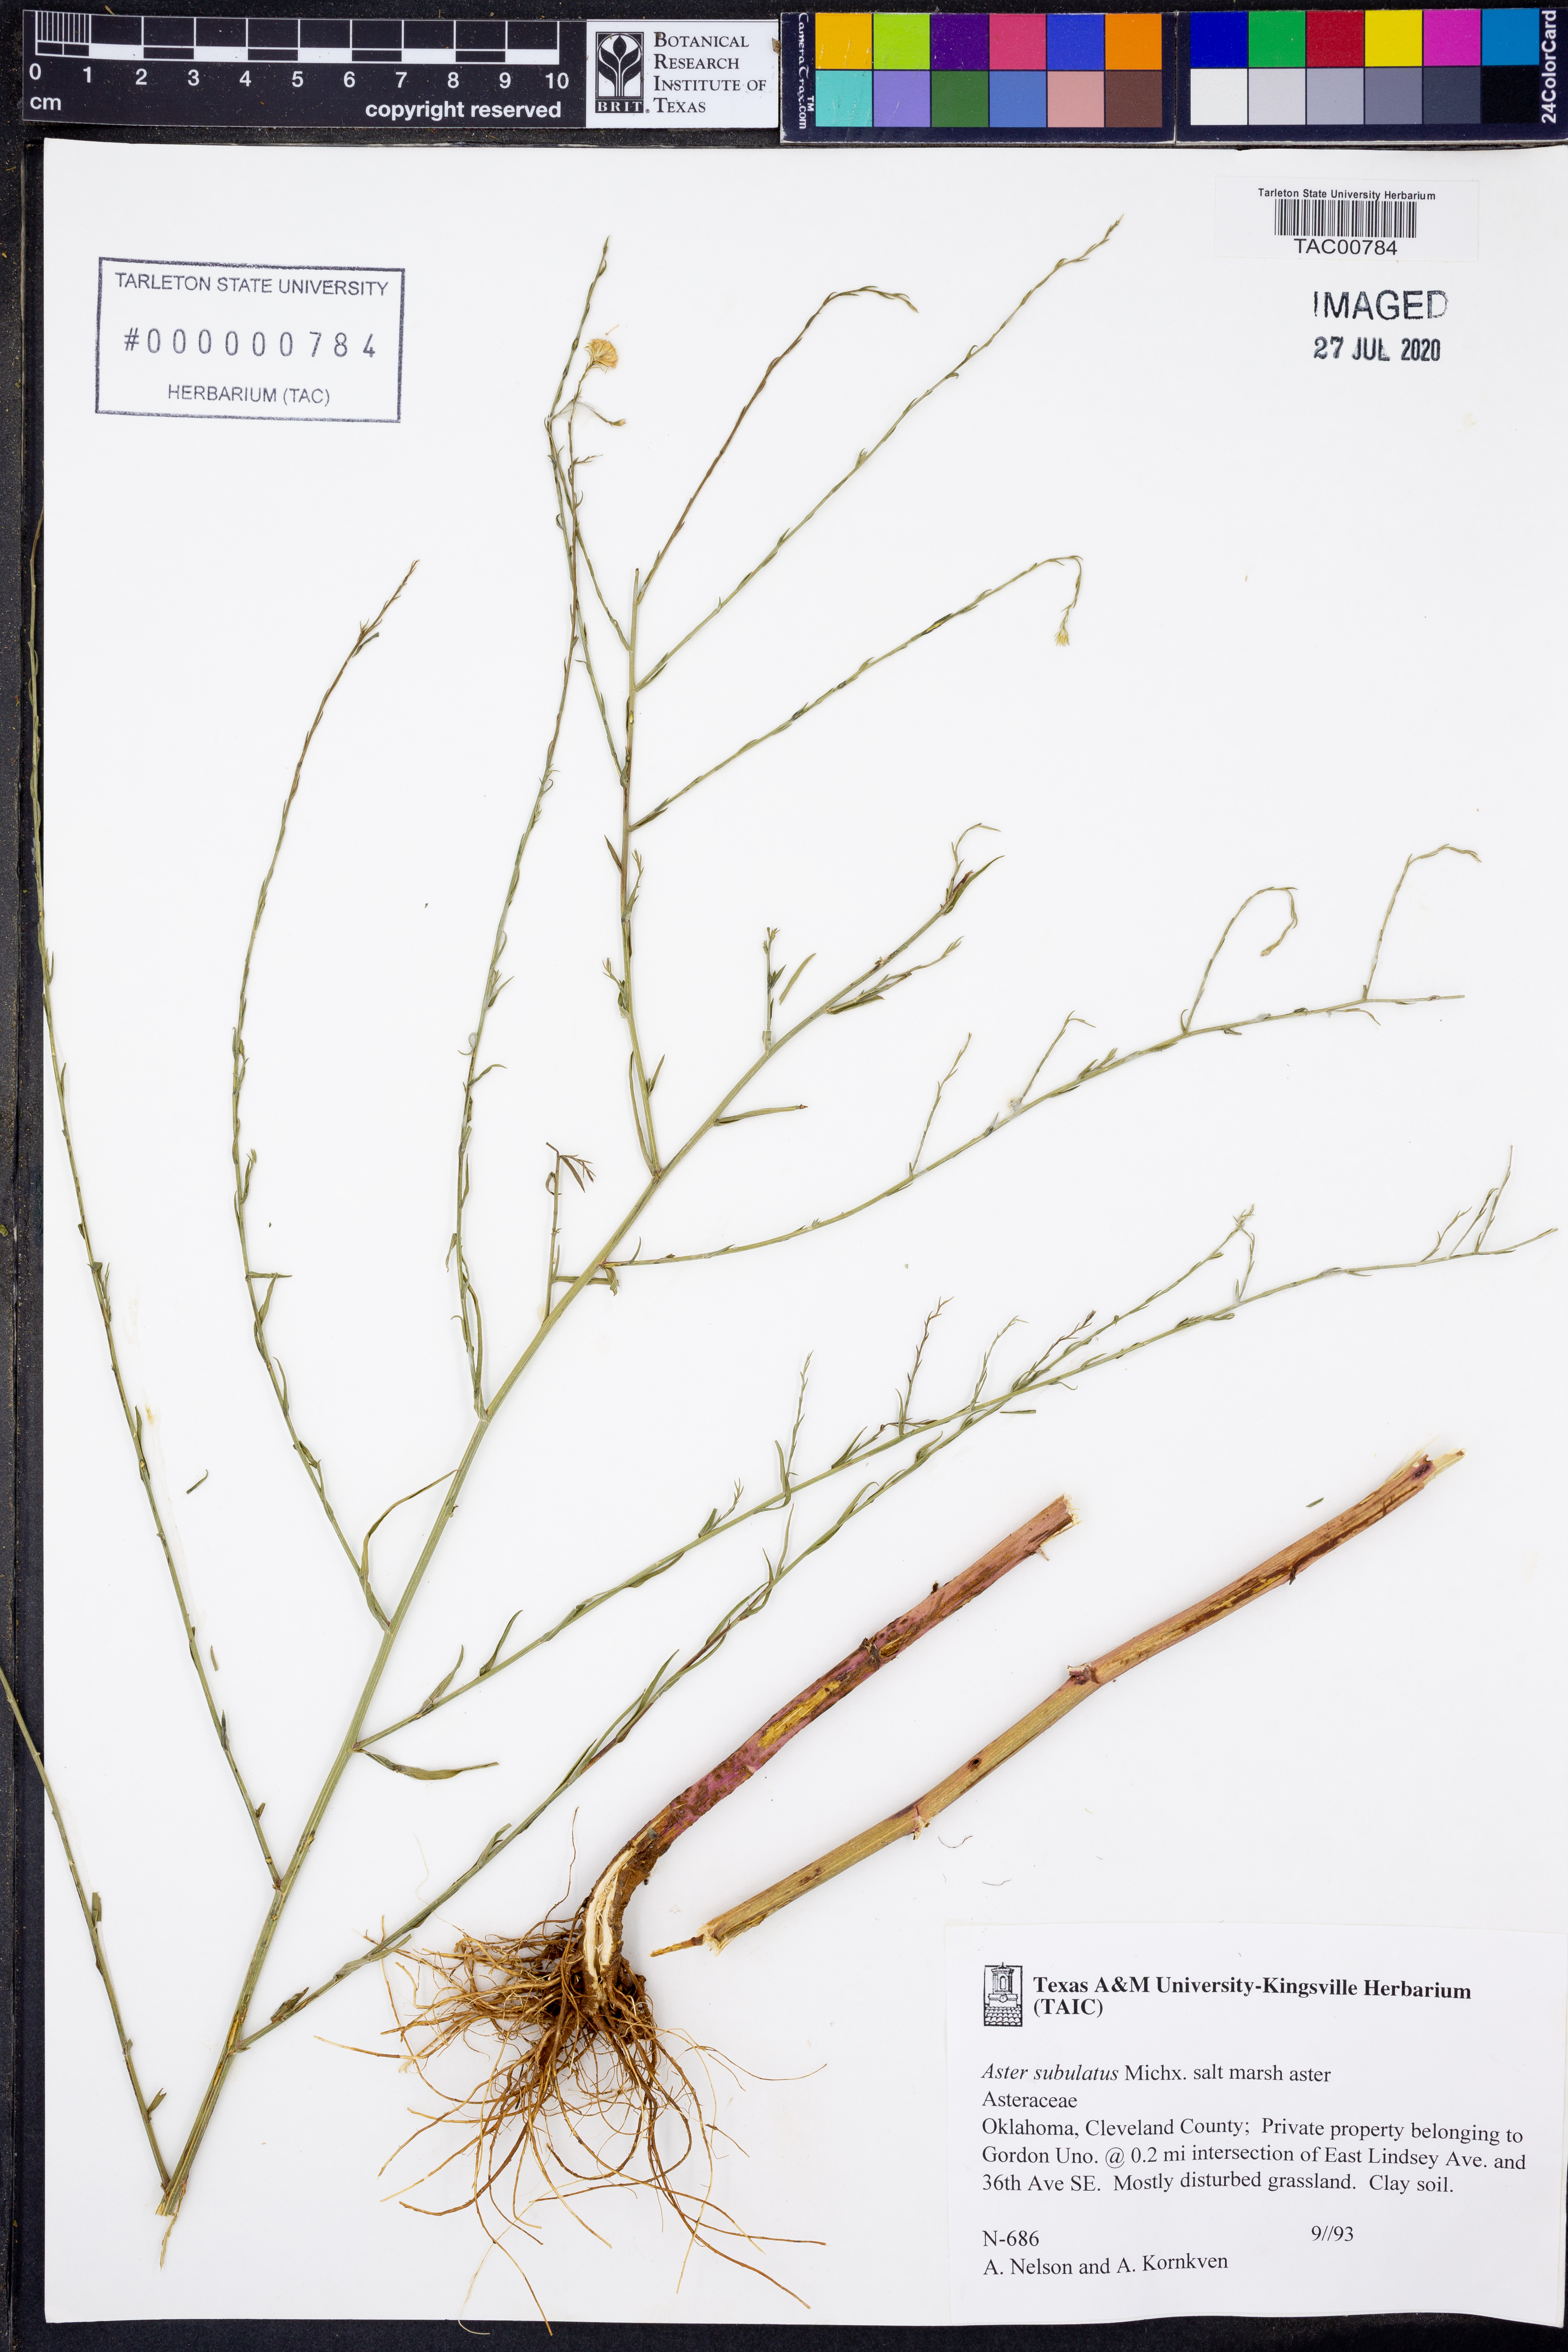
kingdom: Plantae
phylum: Tracheophyta
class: Magnoliopsida
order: Asterales
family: Asteraceae
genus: Symphyotrichum
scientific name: Symphyotrichum subulatum
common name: Annual saltmarsh aster
